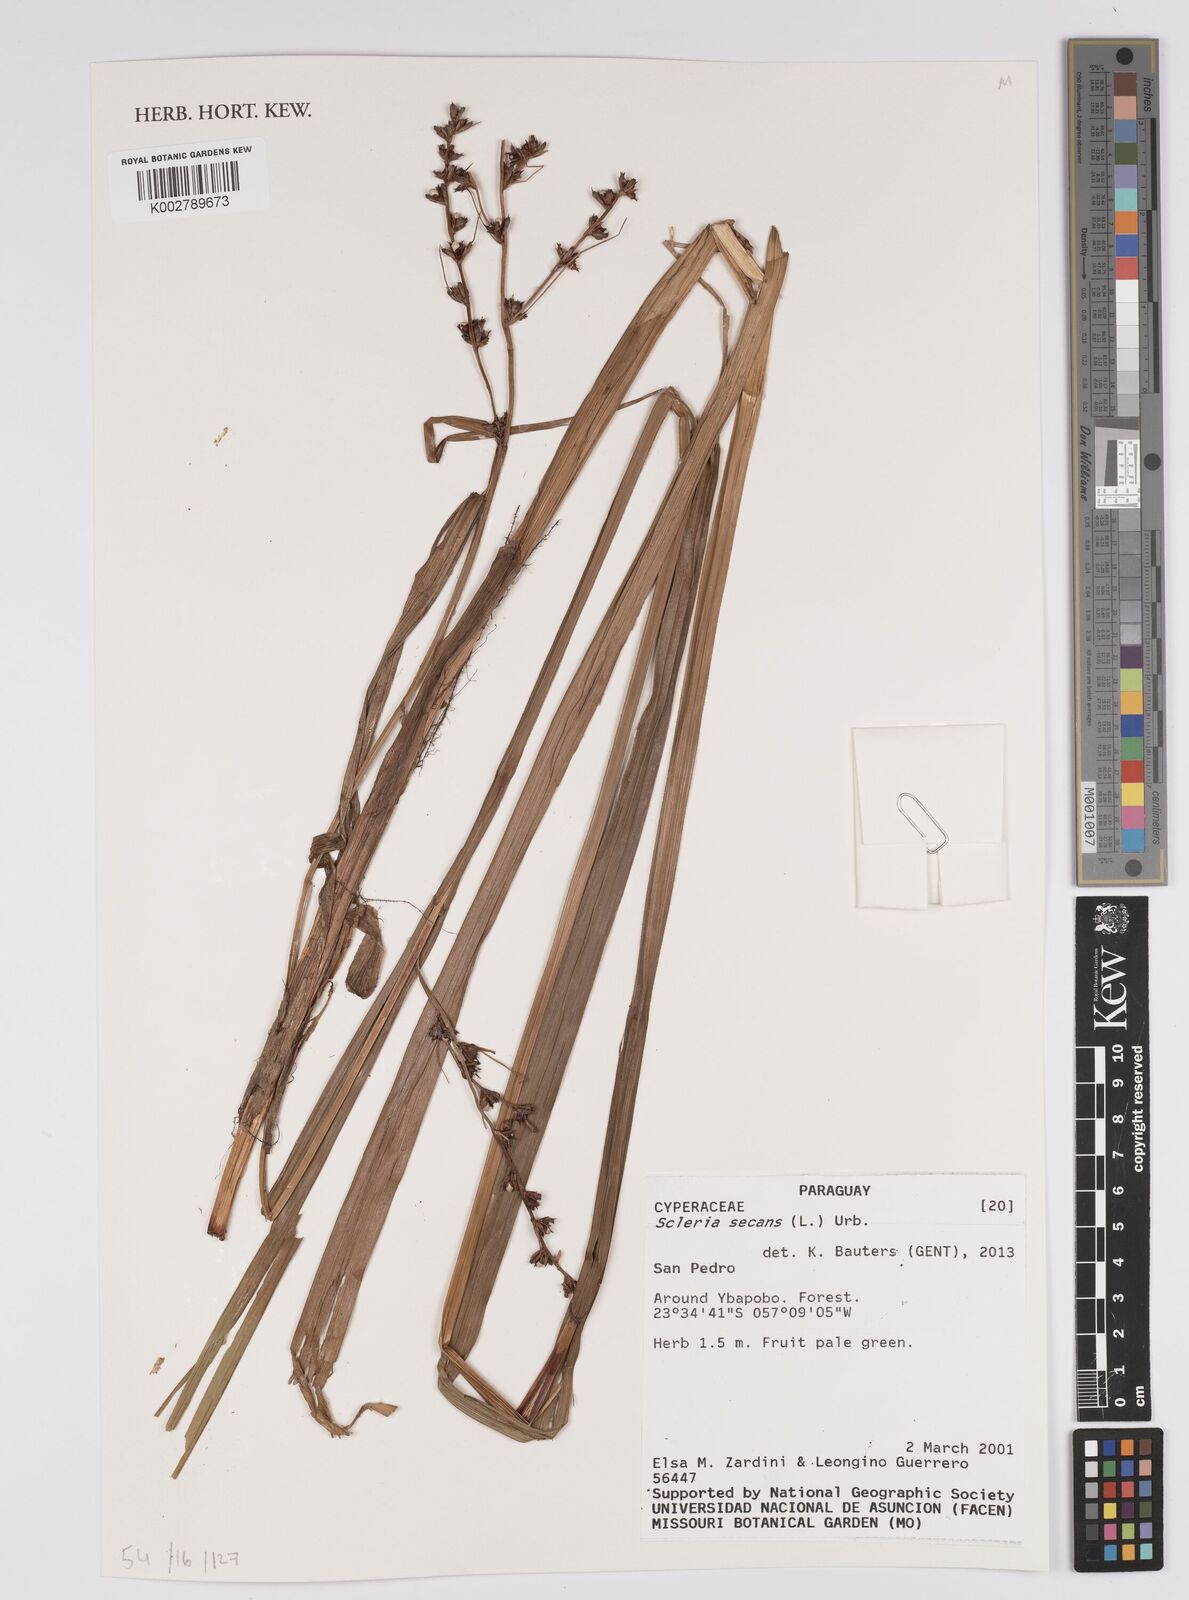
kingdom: Plantae
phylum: Tracheophyta
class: Liliopsida
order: Poales
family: Cyperaceae
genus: Scleria
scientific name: Scleria secans
